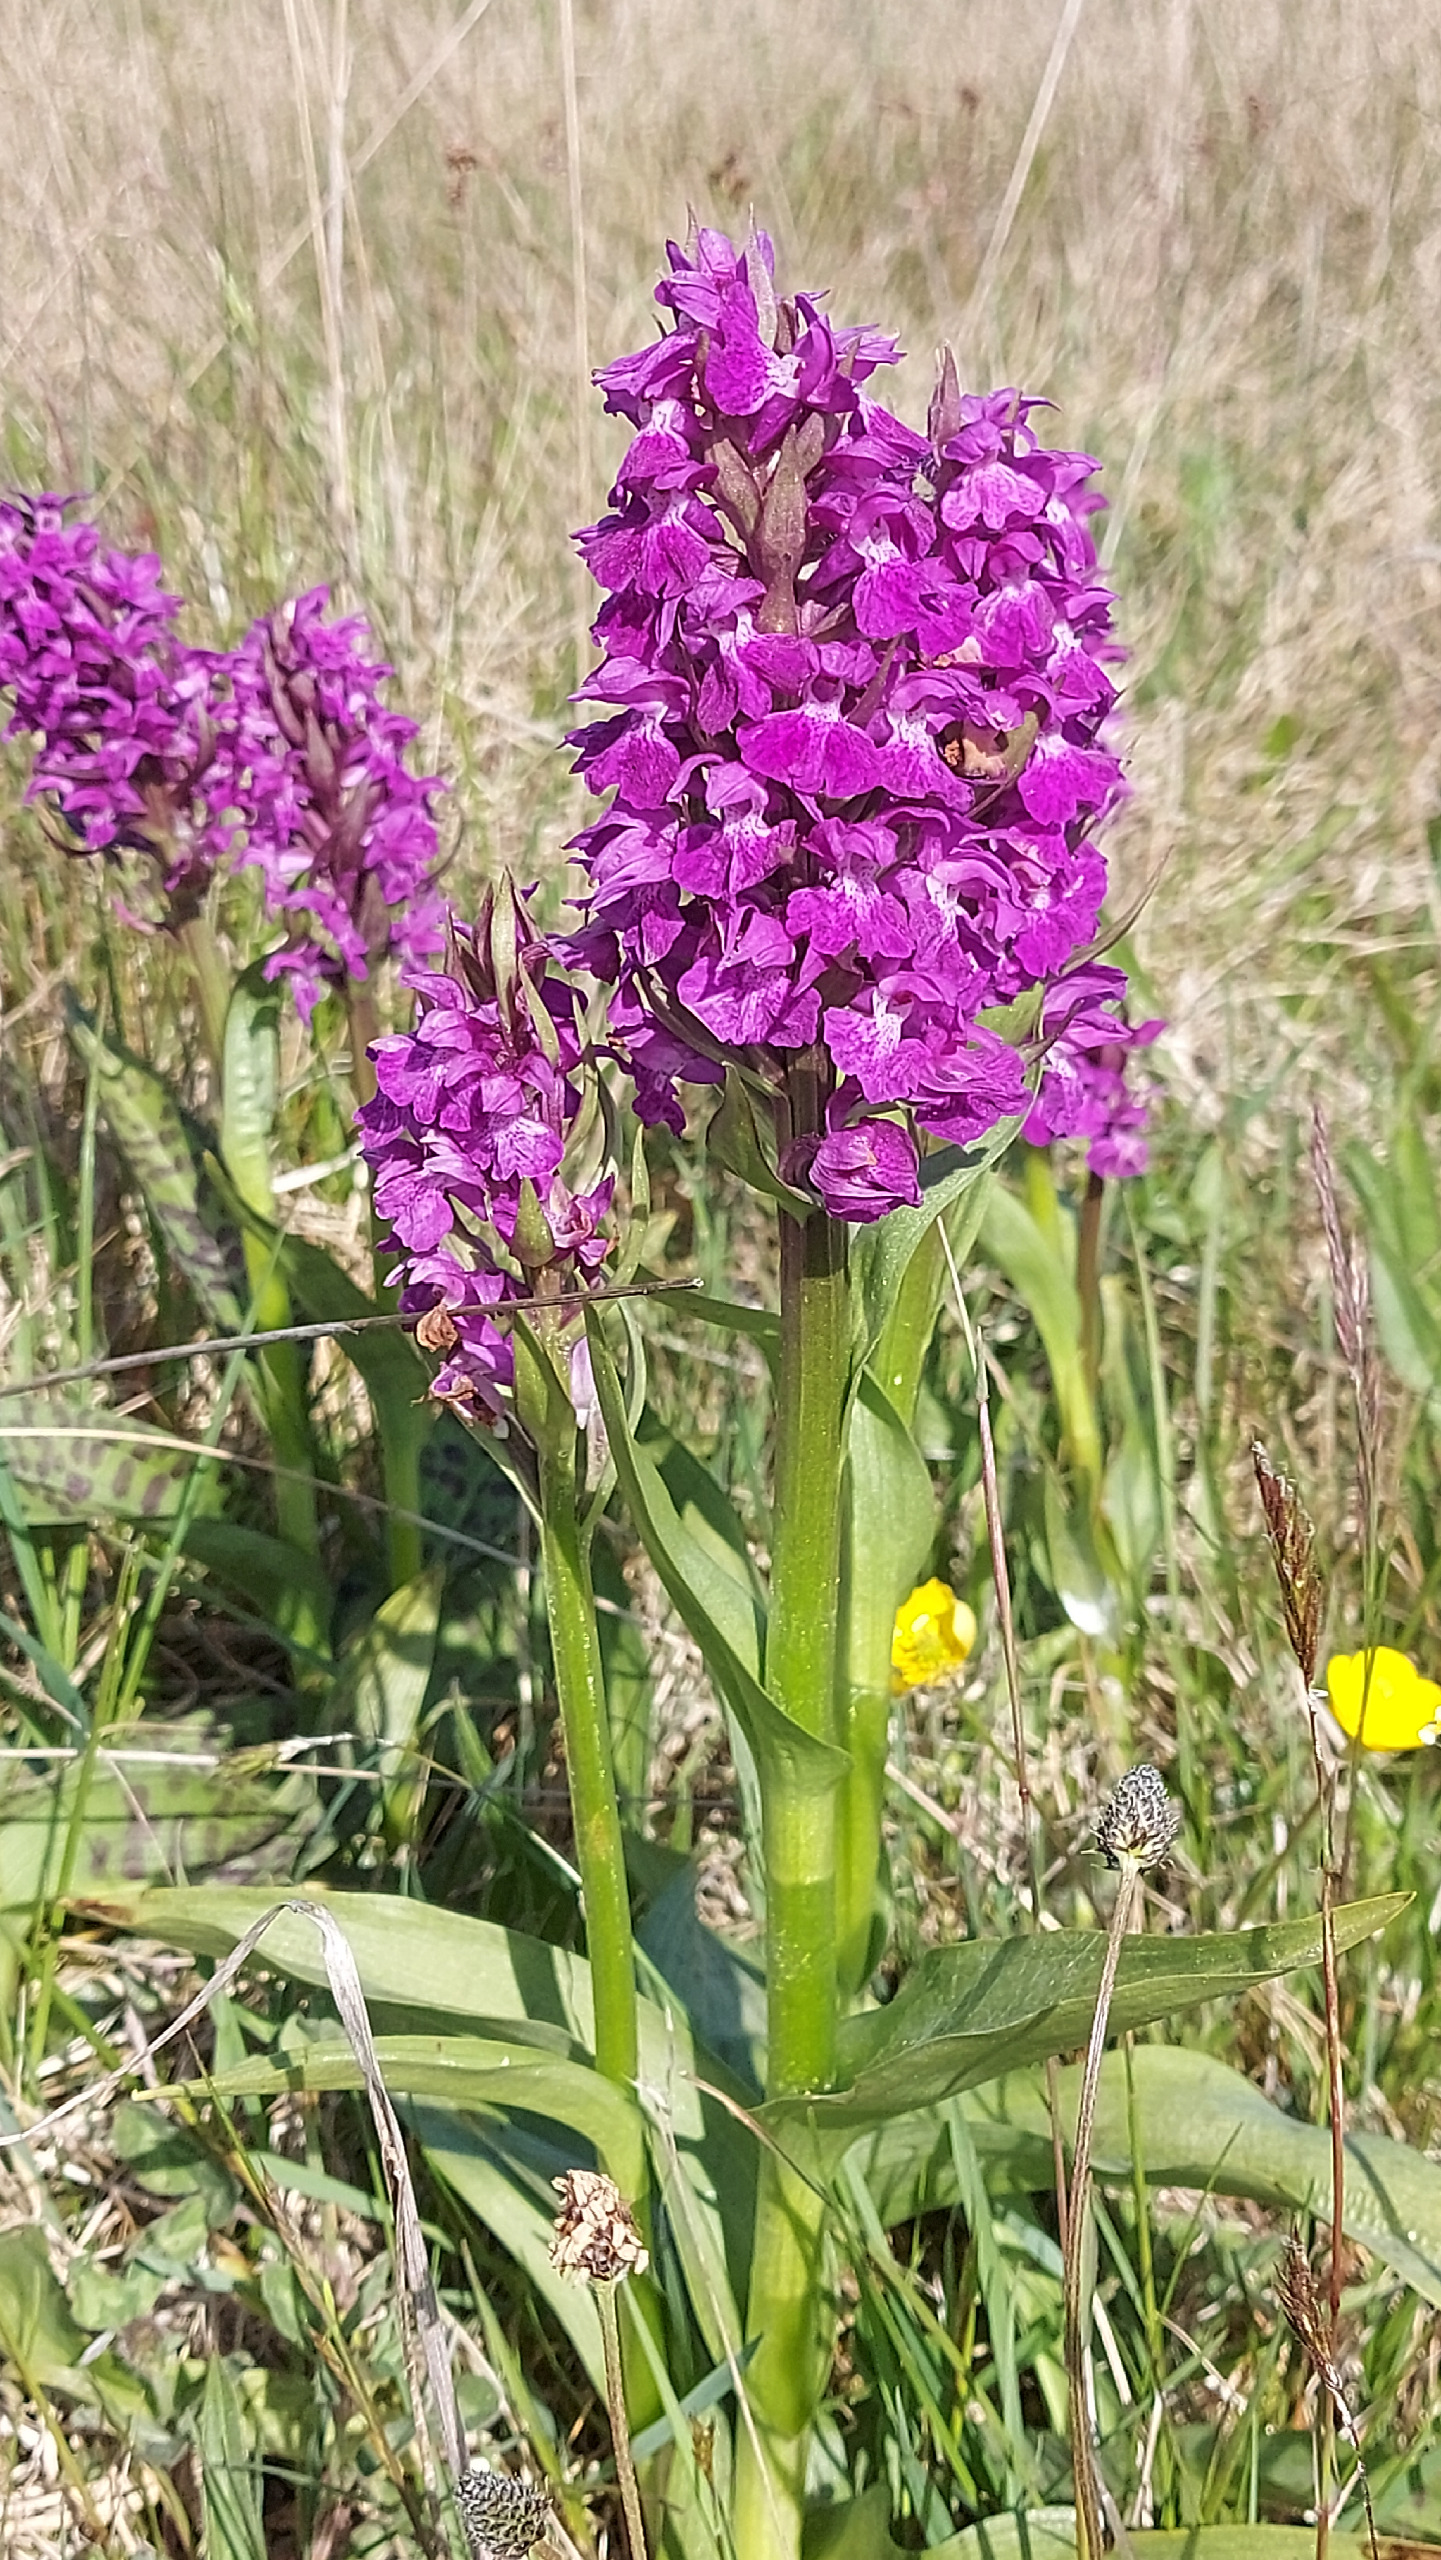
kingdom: Plantae
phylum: Tracheophyta
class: Liliopsida
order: Asparagales
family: Orchidaceae
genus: Dactylorhiza
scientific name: Dactylorhiza majalis
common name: Maj-gøgeurt
